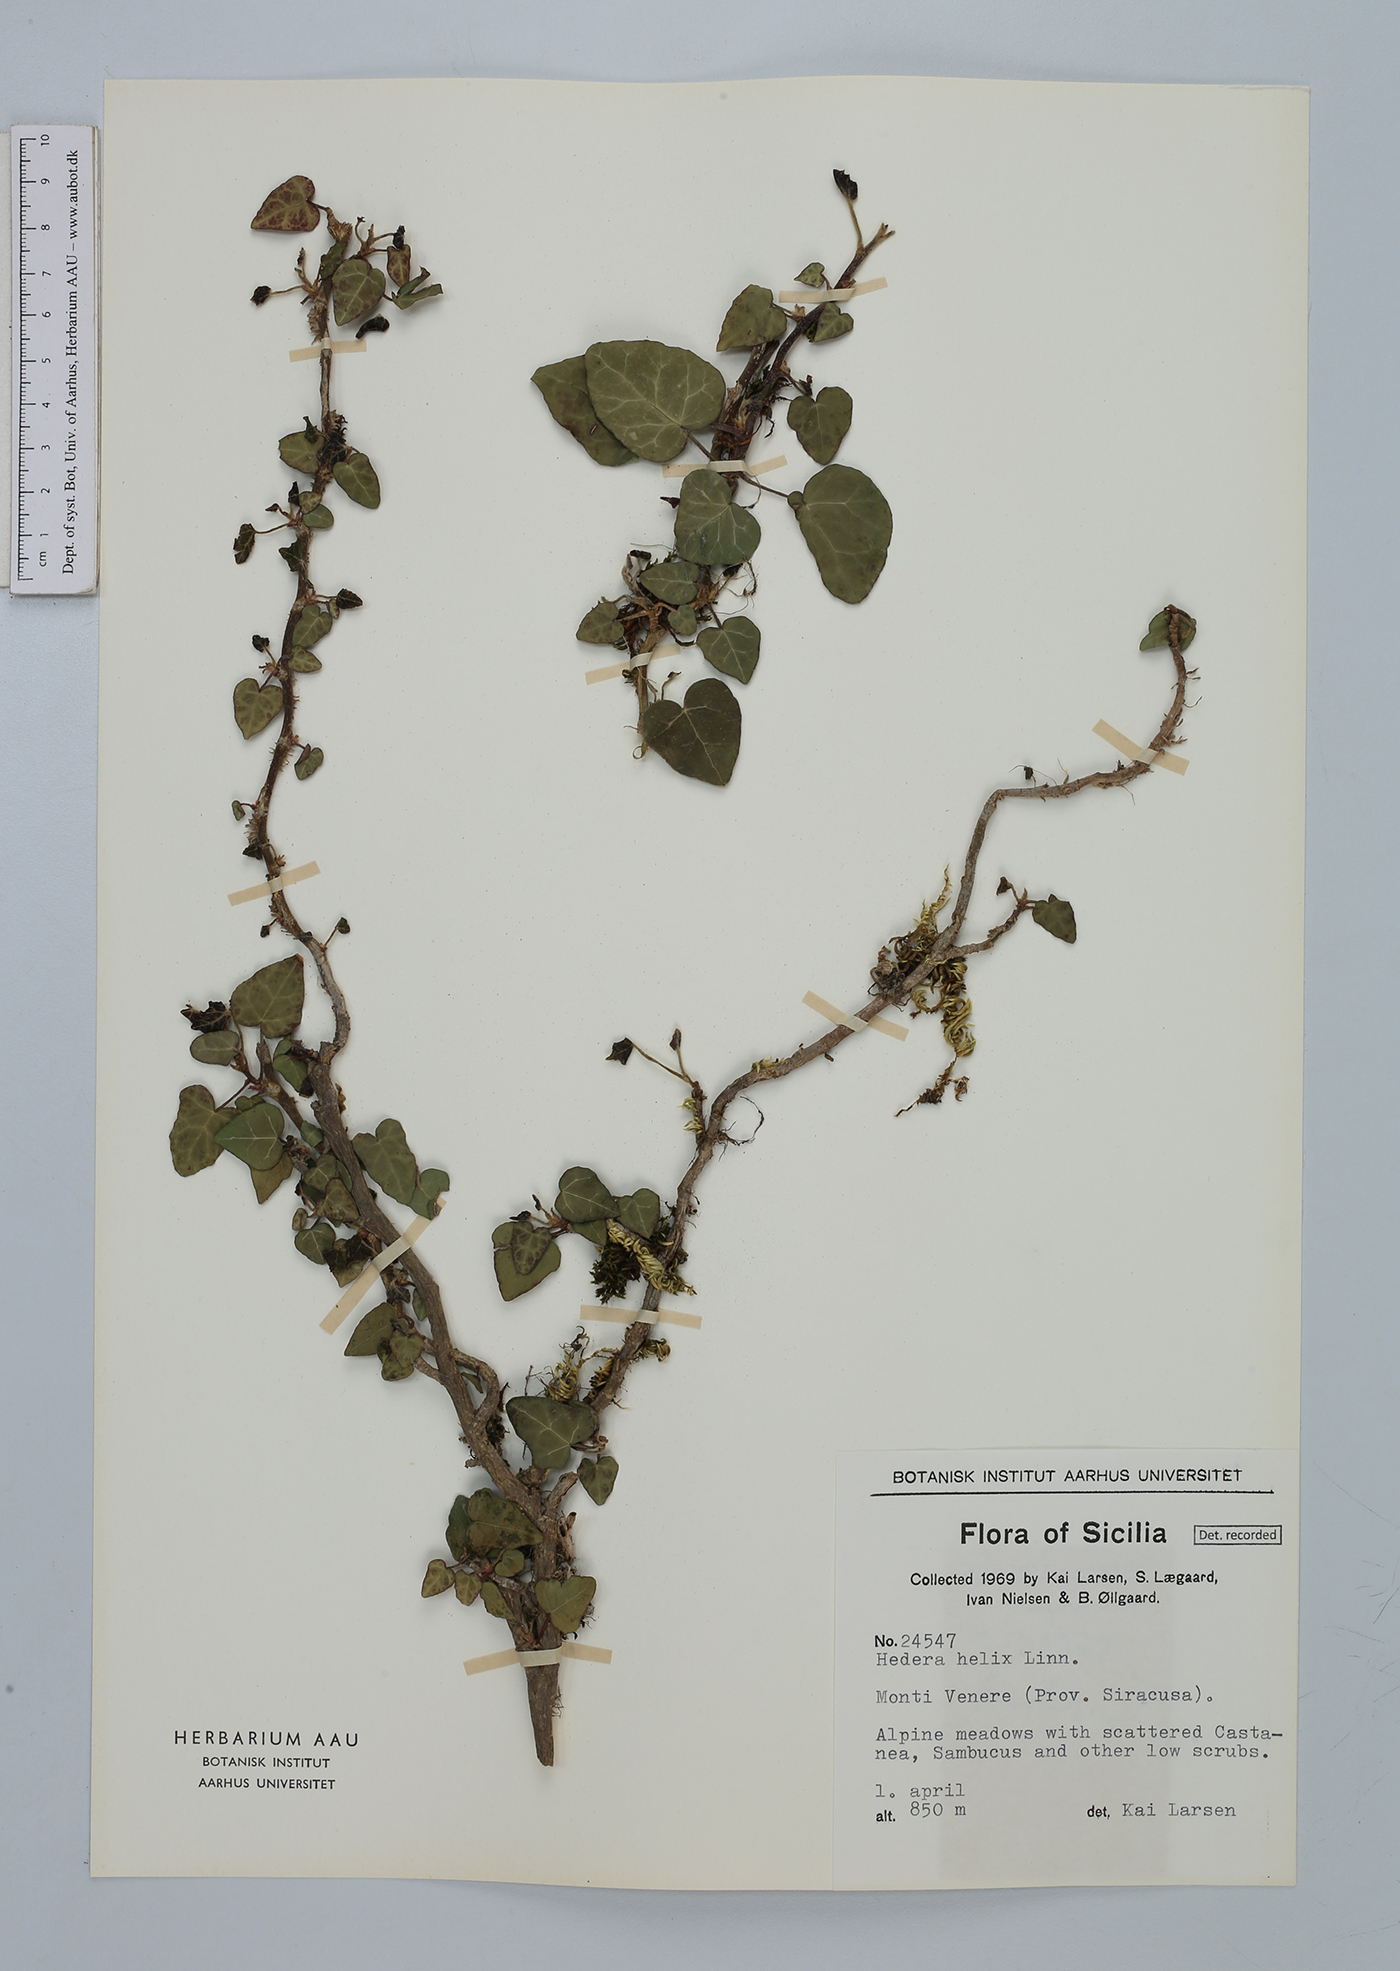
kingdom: Plantae
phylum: Tracheophyta
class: Magnoliopsida
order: Apiales
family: Araliaceae
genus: Hedera
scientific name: Hedera helix
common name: Ivy
